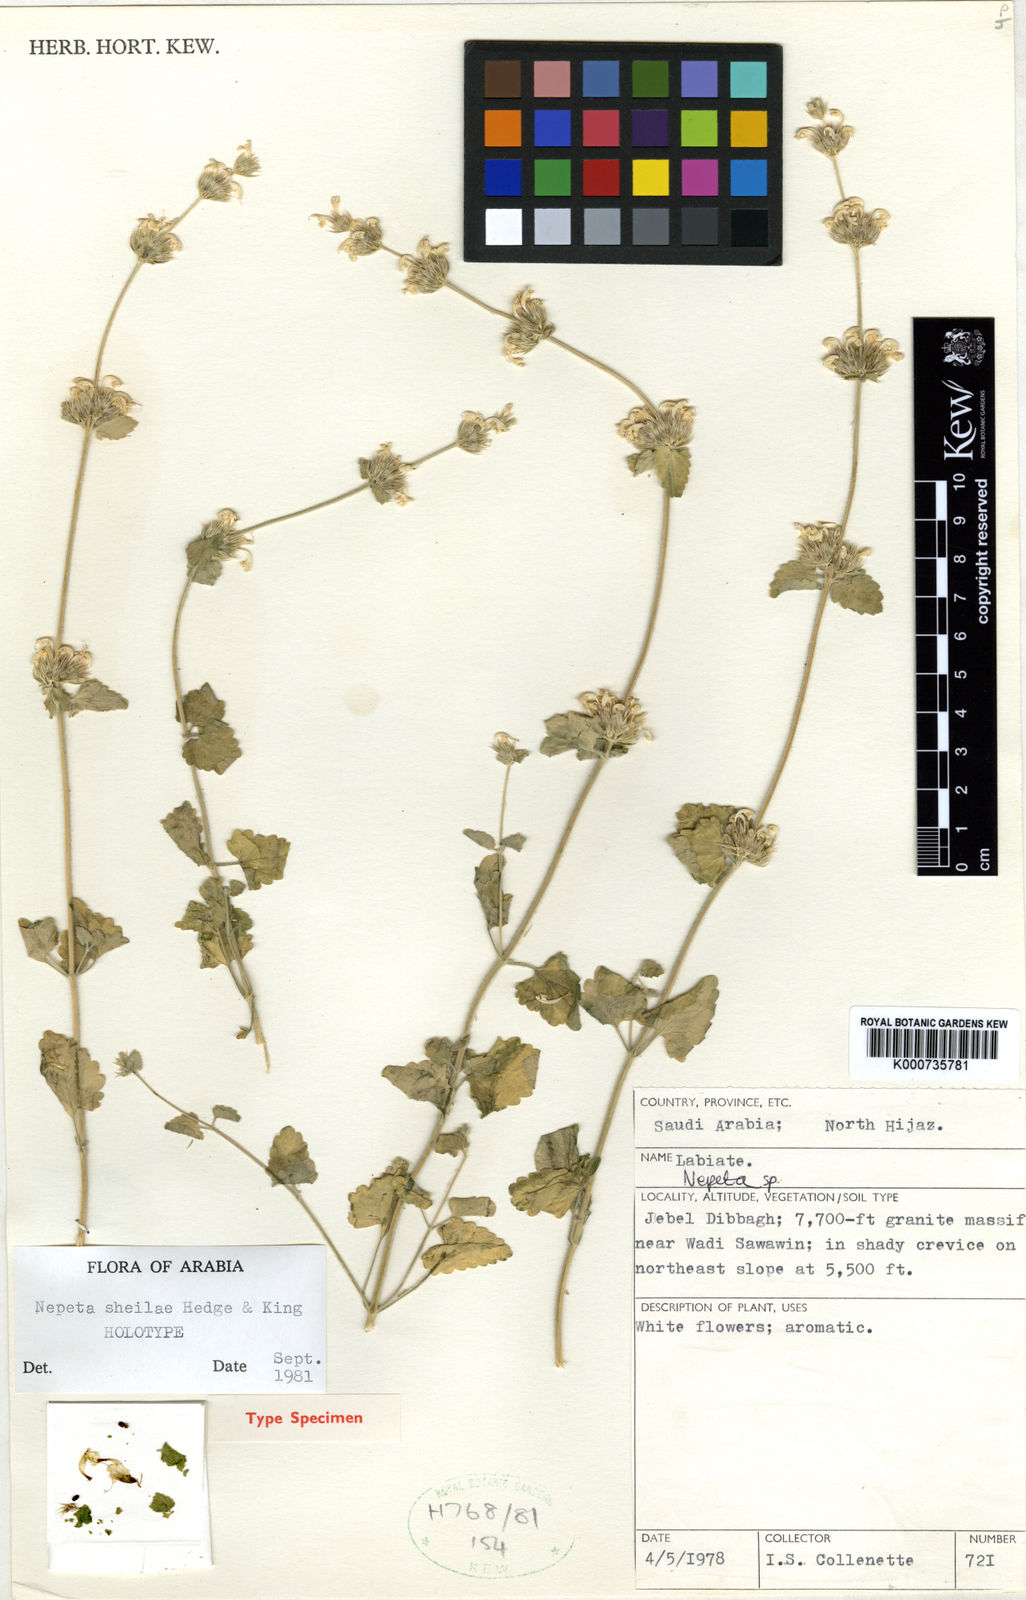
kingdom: Plantae
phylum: Tracheophyta
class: Magnoliopsida
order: Lamiales
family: Lamiaceae
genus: Nepeta
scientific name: Nepeta sheilae
